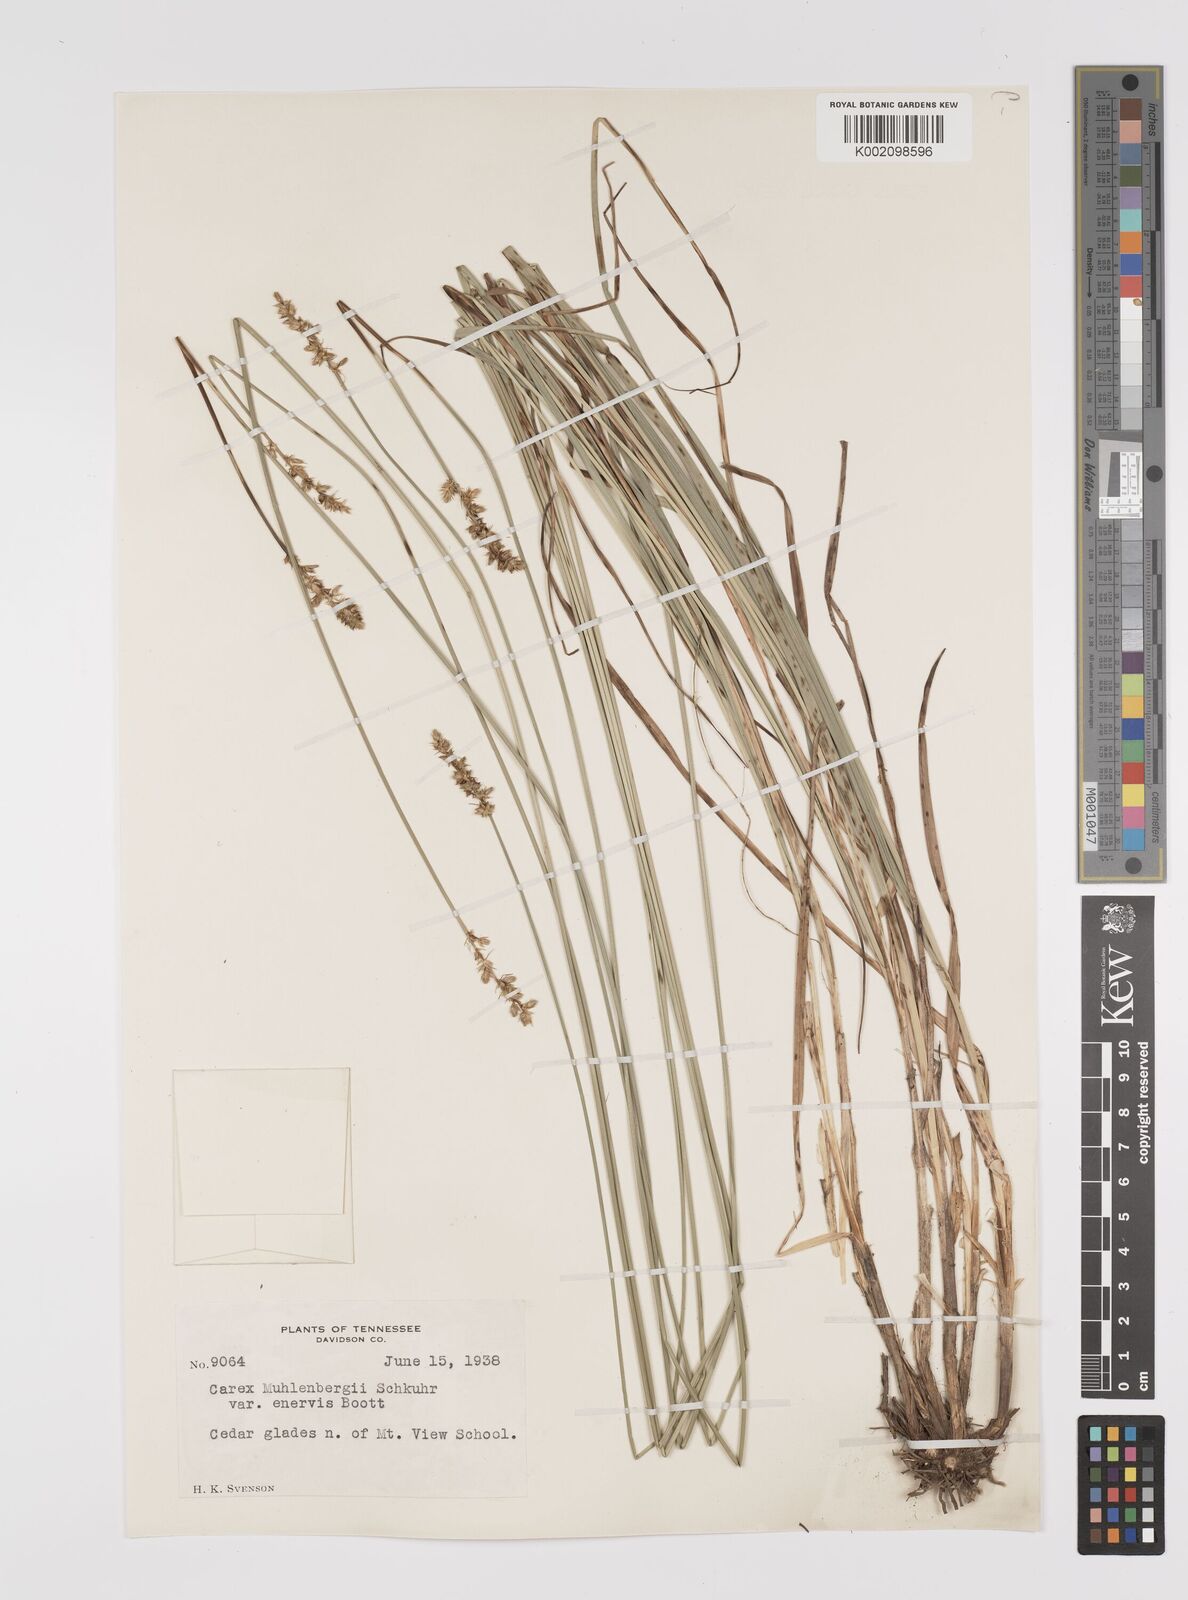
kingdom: Plantae
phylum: Tracheophyta
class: Liliopsida
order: Poales
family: Cyperaceae
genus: Carex
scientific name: Carex vulpinoidea
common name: American fox-sedge
